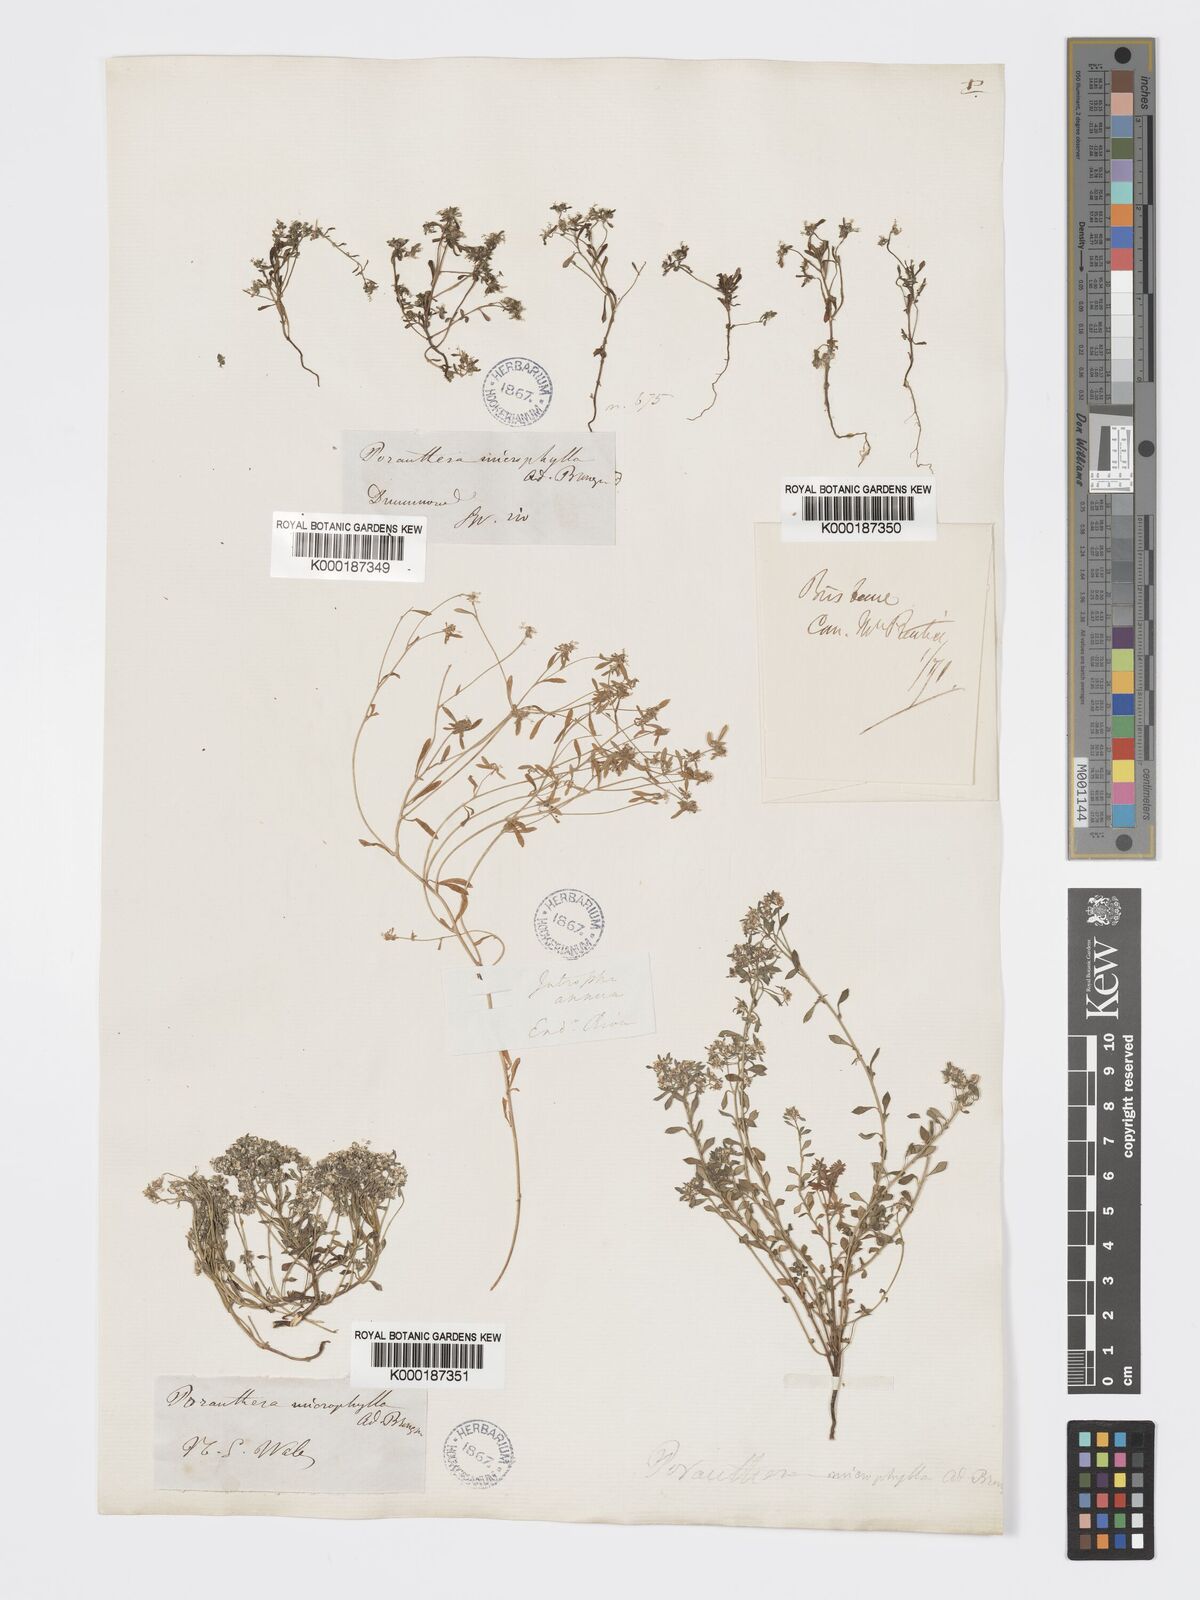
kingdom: Plantae
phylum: Tracheophyta
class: Magnoliopsida
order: Malpighiales
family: Phyllanthaceae
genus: Poranthera
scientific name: Poranthera microphylla
